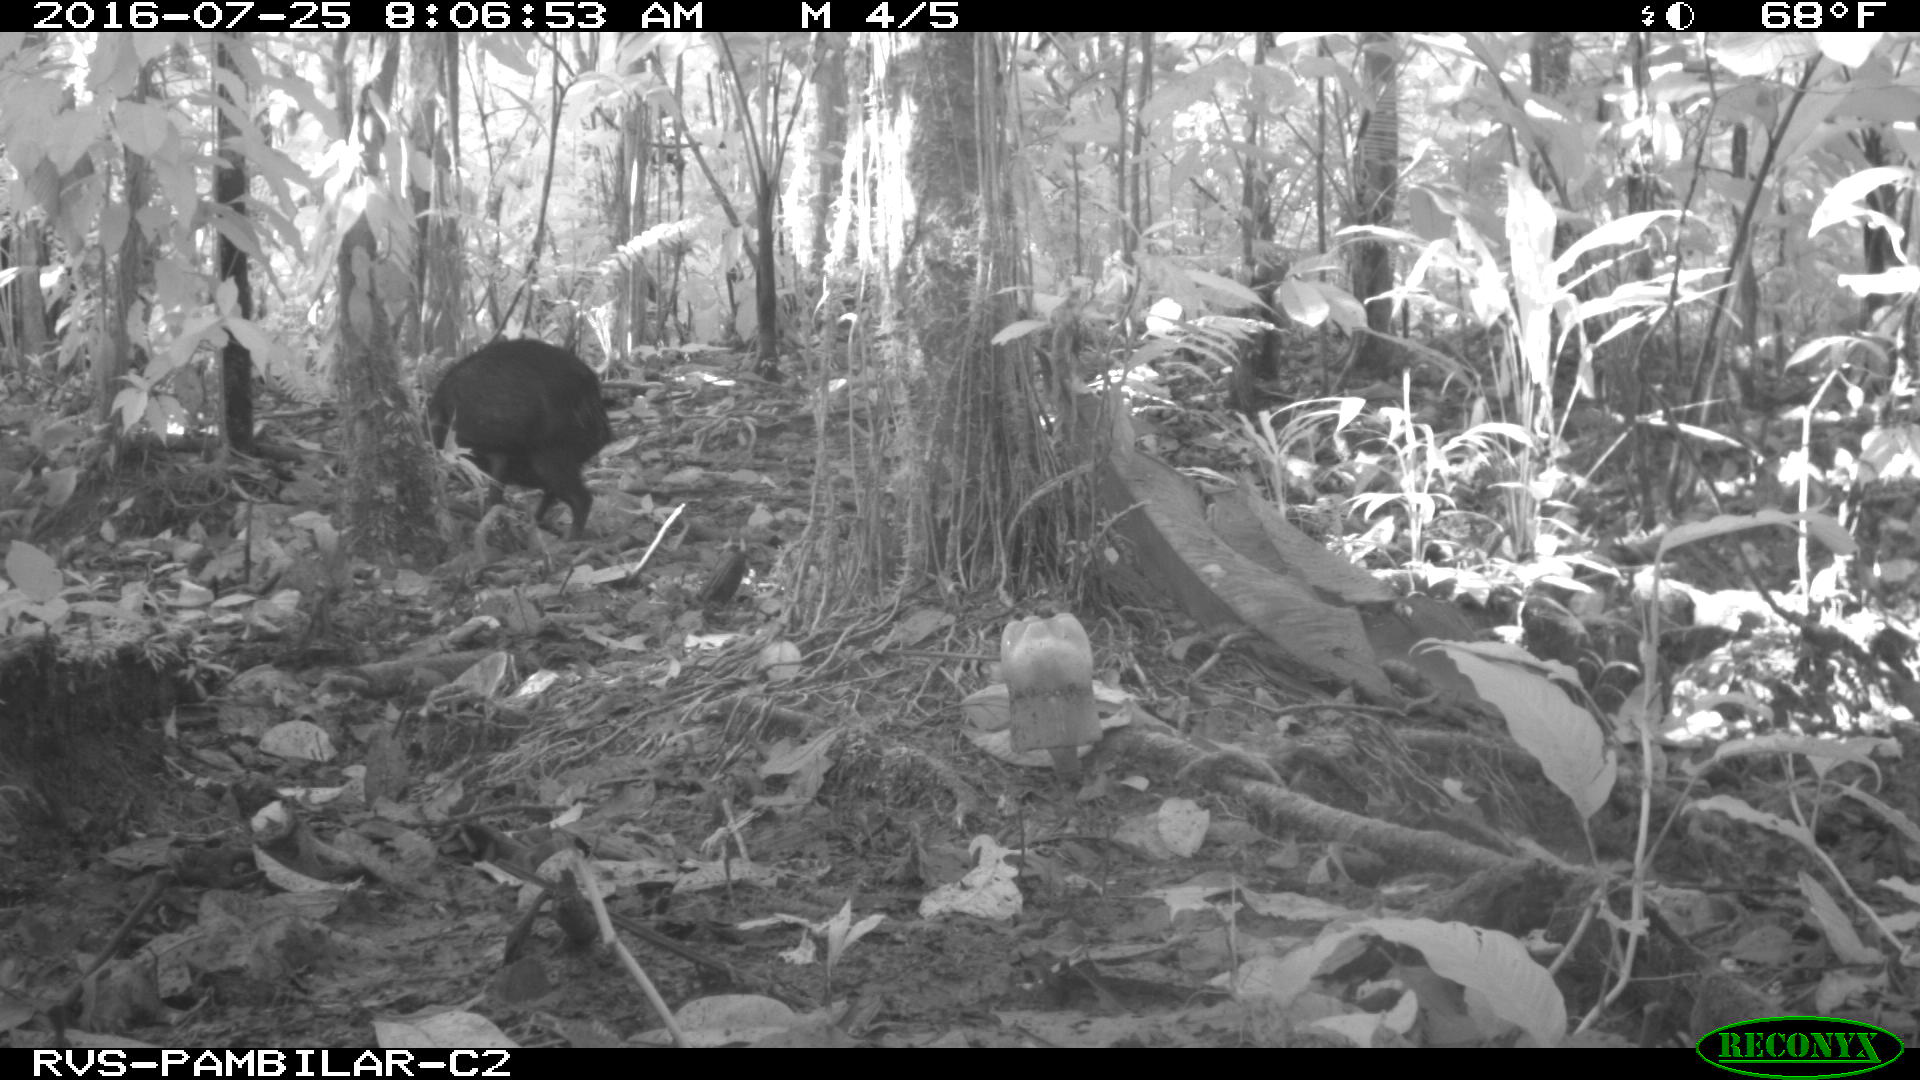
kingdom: Animalia
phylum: Chordata
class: Mammalia
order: Artiodactyla
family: Tayassuidae
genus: Pecari
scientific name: Pecari tajacu
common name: Collared peccary
